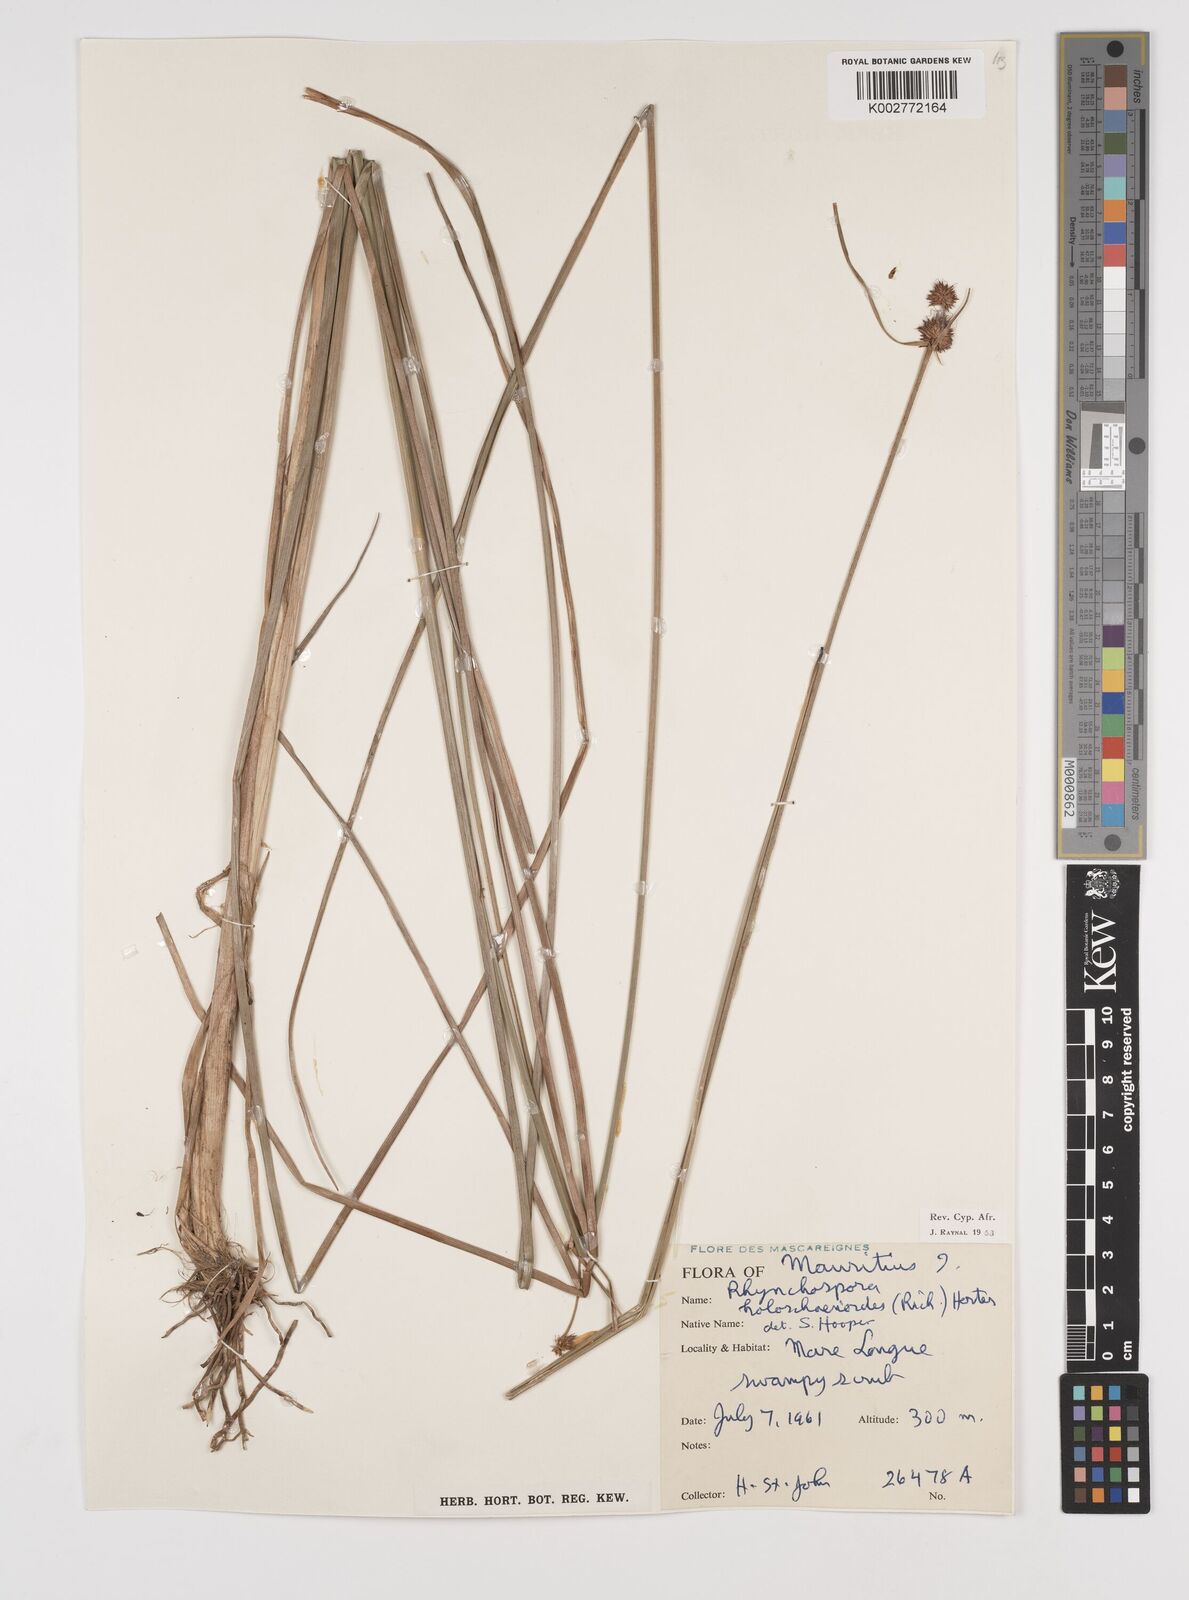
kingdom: Plantae
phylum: Tracheophyta
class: Liliopsida
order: Poales
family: Cyperaceae
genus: Rhynchospora
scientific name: Rhynchospora holoschoenoides
